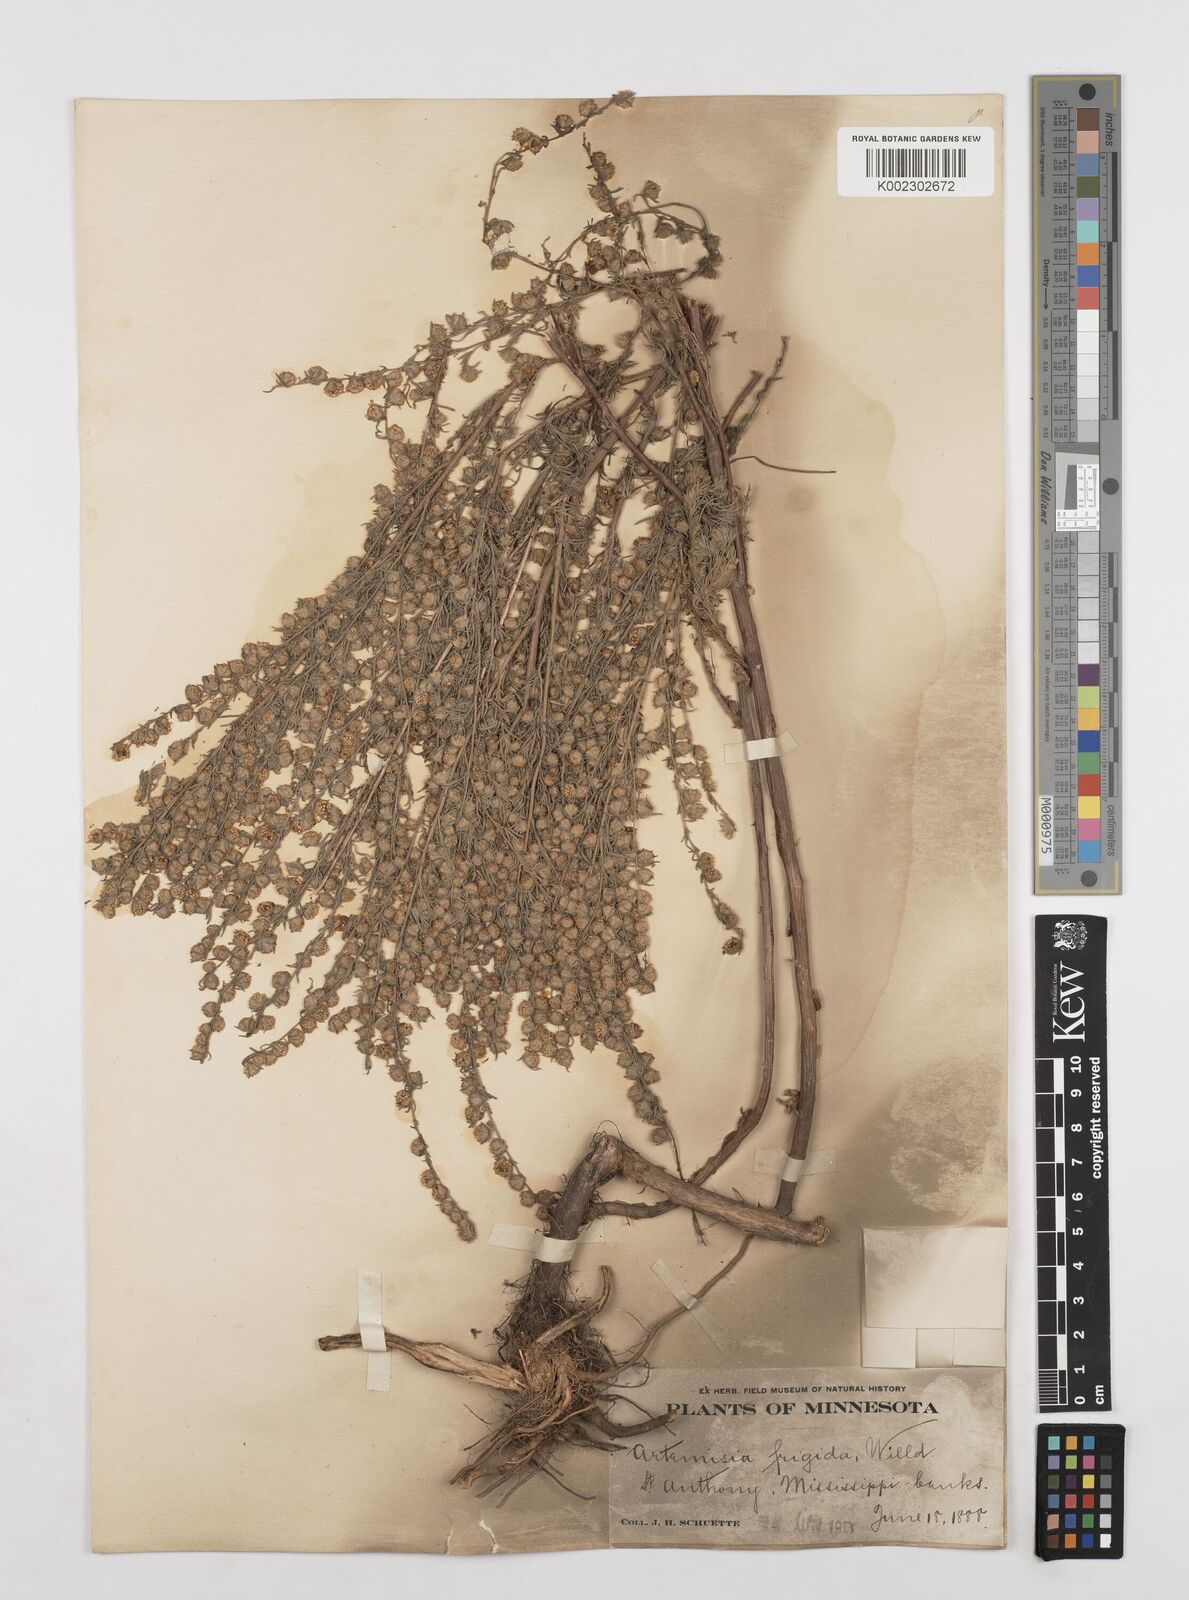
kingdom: Plantae
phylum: Tracheophyta
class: Magnoliopsida
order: Asterales
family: Asteraceae
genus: Artemisia
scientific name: Artemisia frigida
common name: Prairie sagewort
